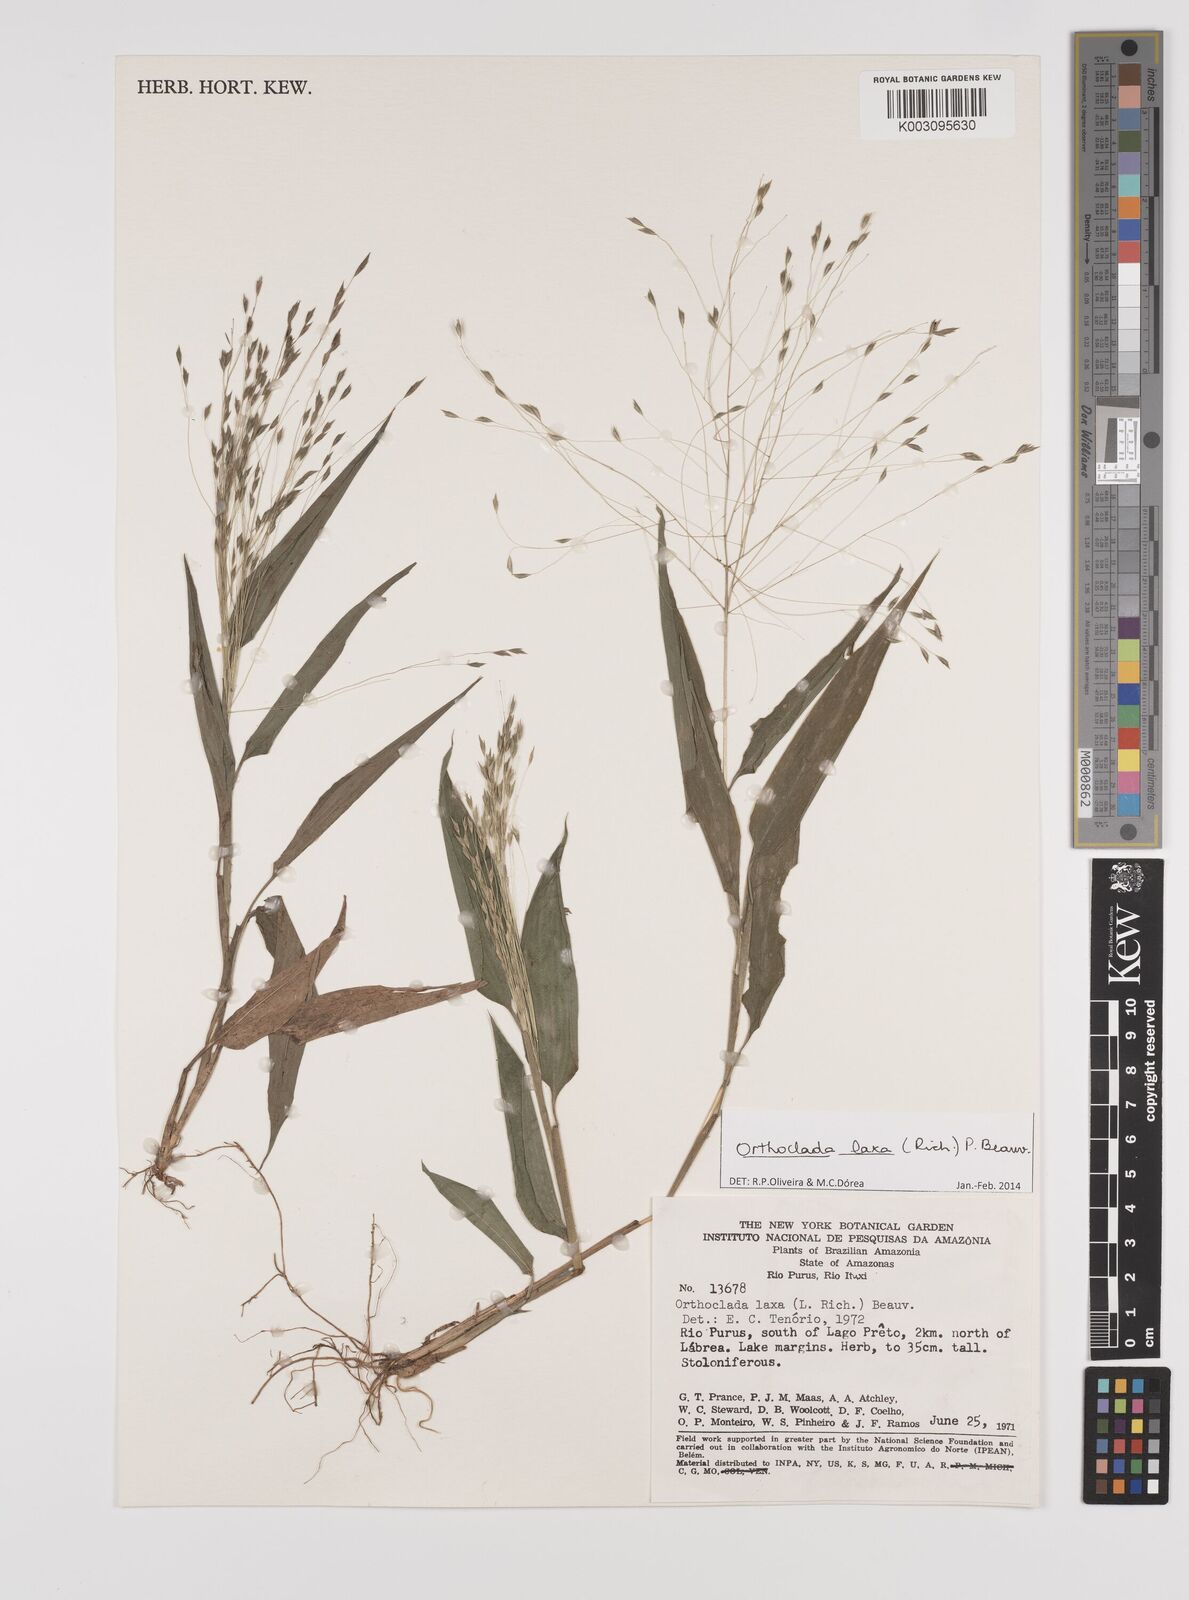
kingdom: Plantae
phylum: Tracheophyta
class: Liliopsida
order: Poales
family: Poaceae
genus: Orthoclada
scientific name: Orthoclada laxa
